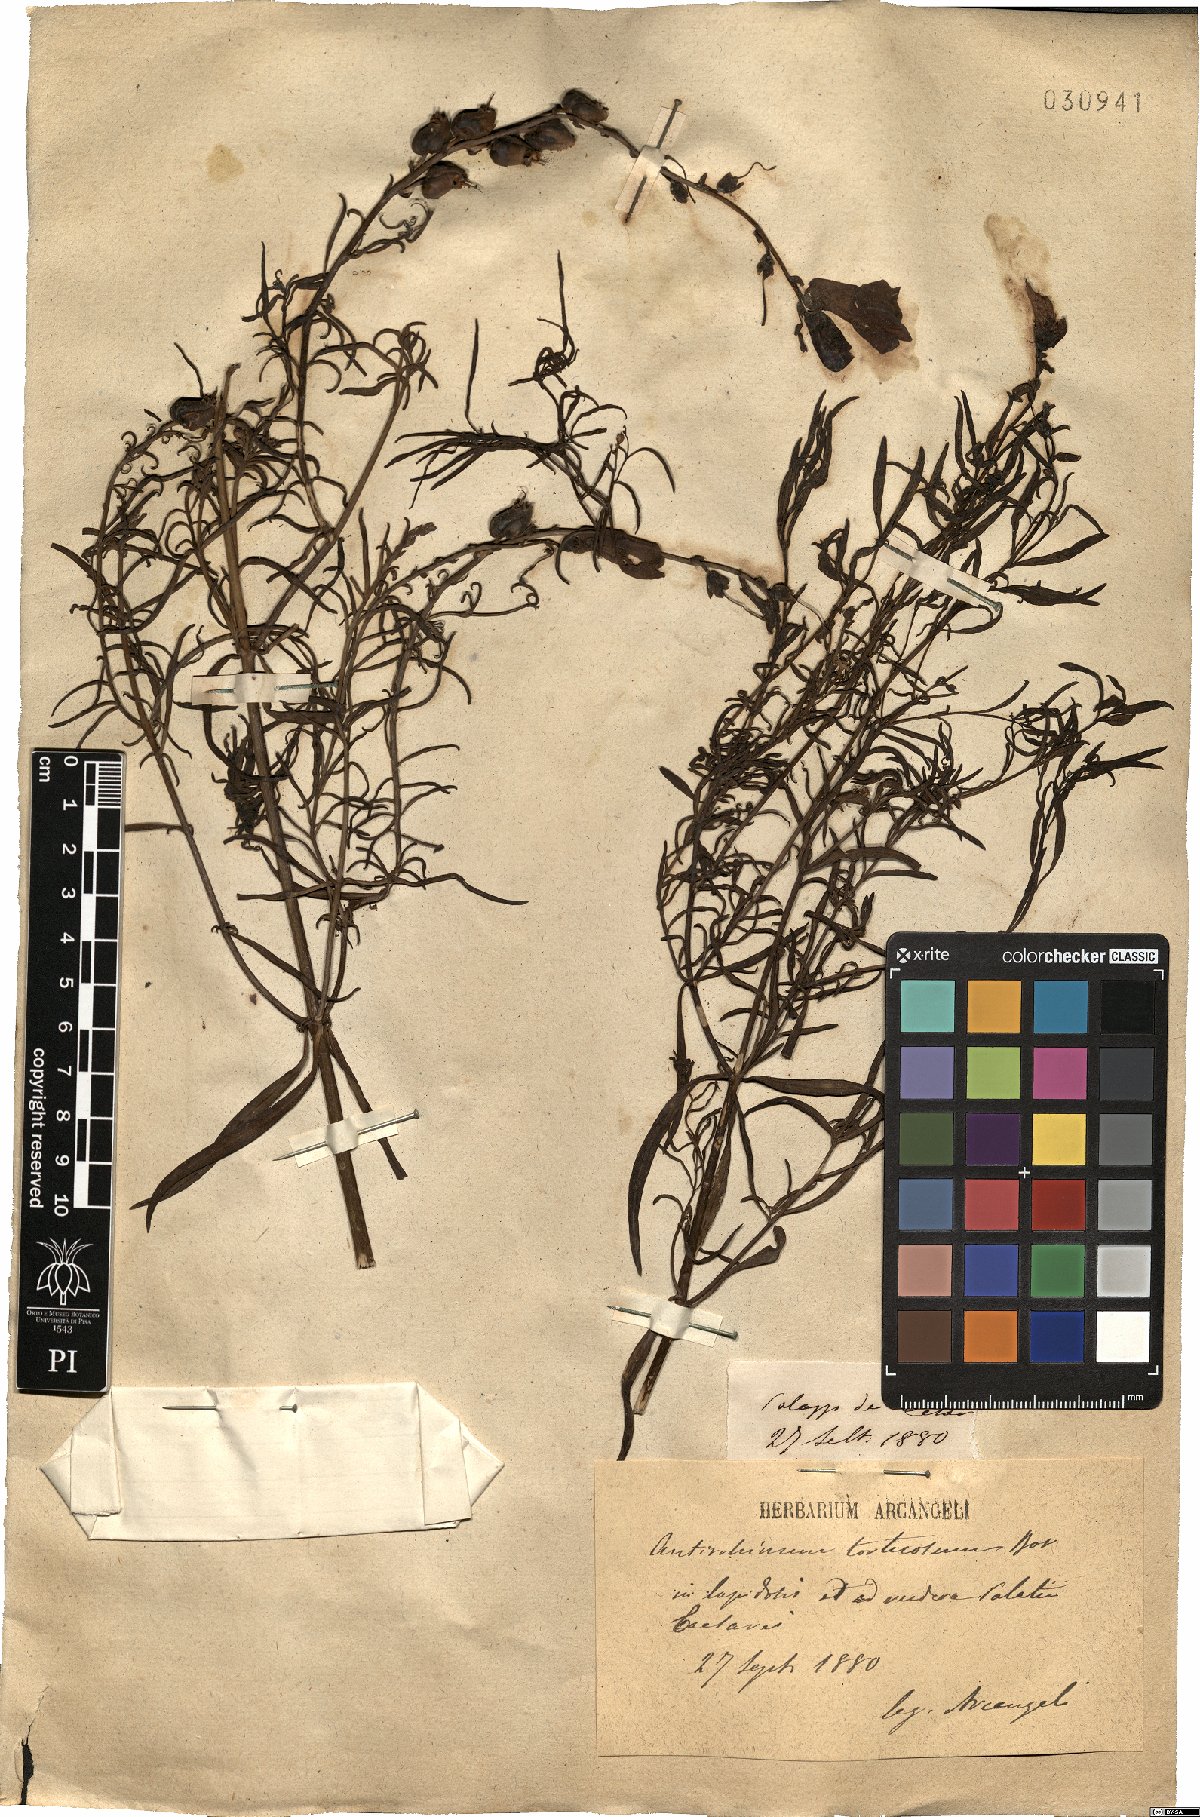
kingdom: Plantae
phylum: Tracheophyta
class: Magnoliopsida
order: Lamiales
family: Plantaginaceae
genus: Antirrhinum
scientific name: Antirrhinum tortuosum
